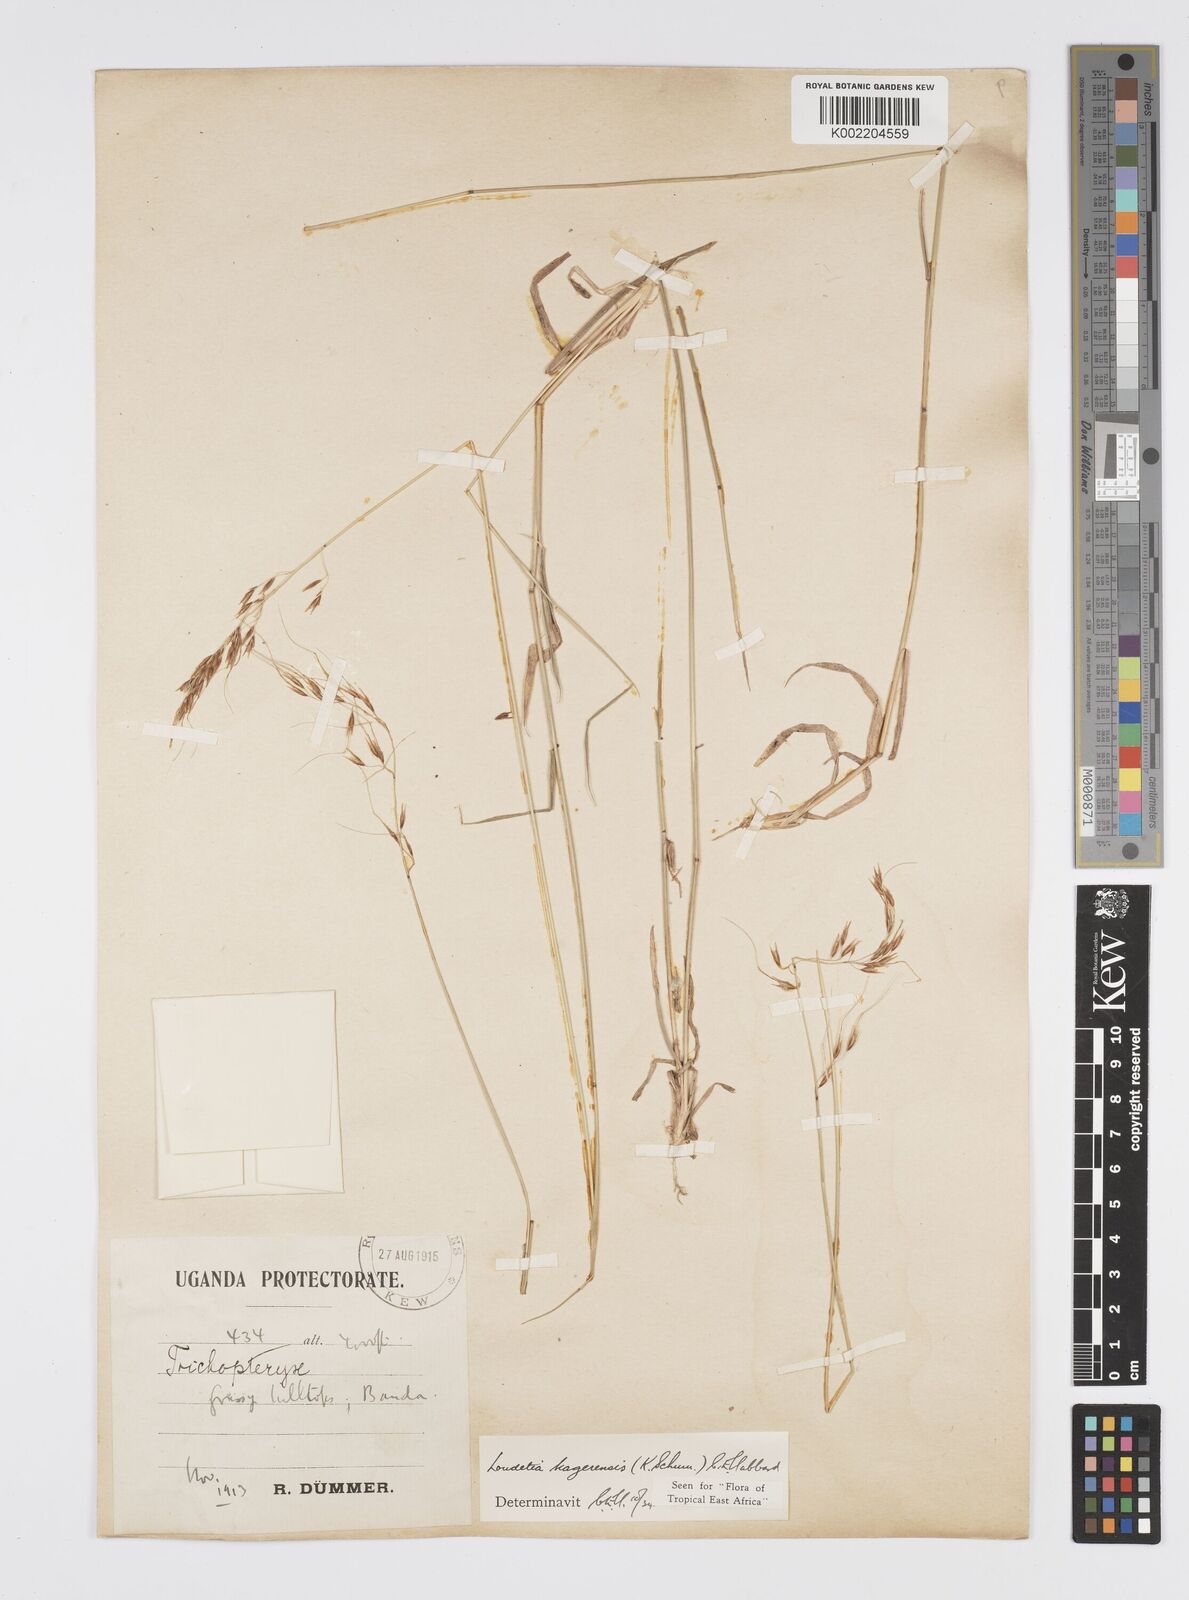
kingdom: Plantae
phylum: Tracheophyta
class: Liliopsida
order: Poales
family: Poaceae
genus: Loudetia
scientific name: Loudetia kagerensis
